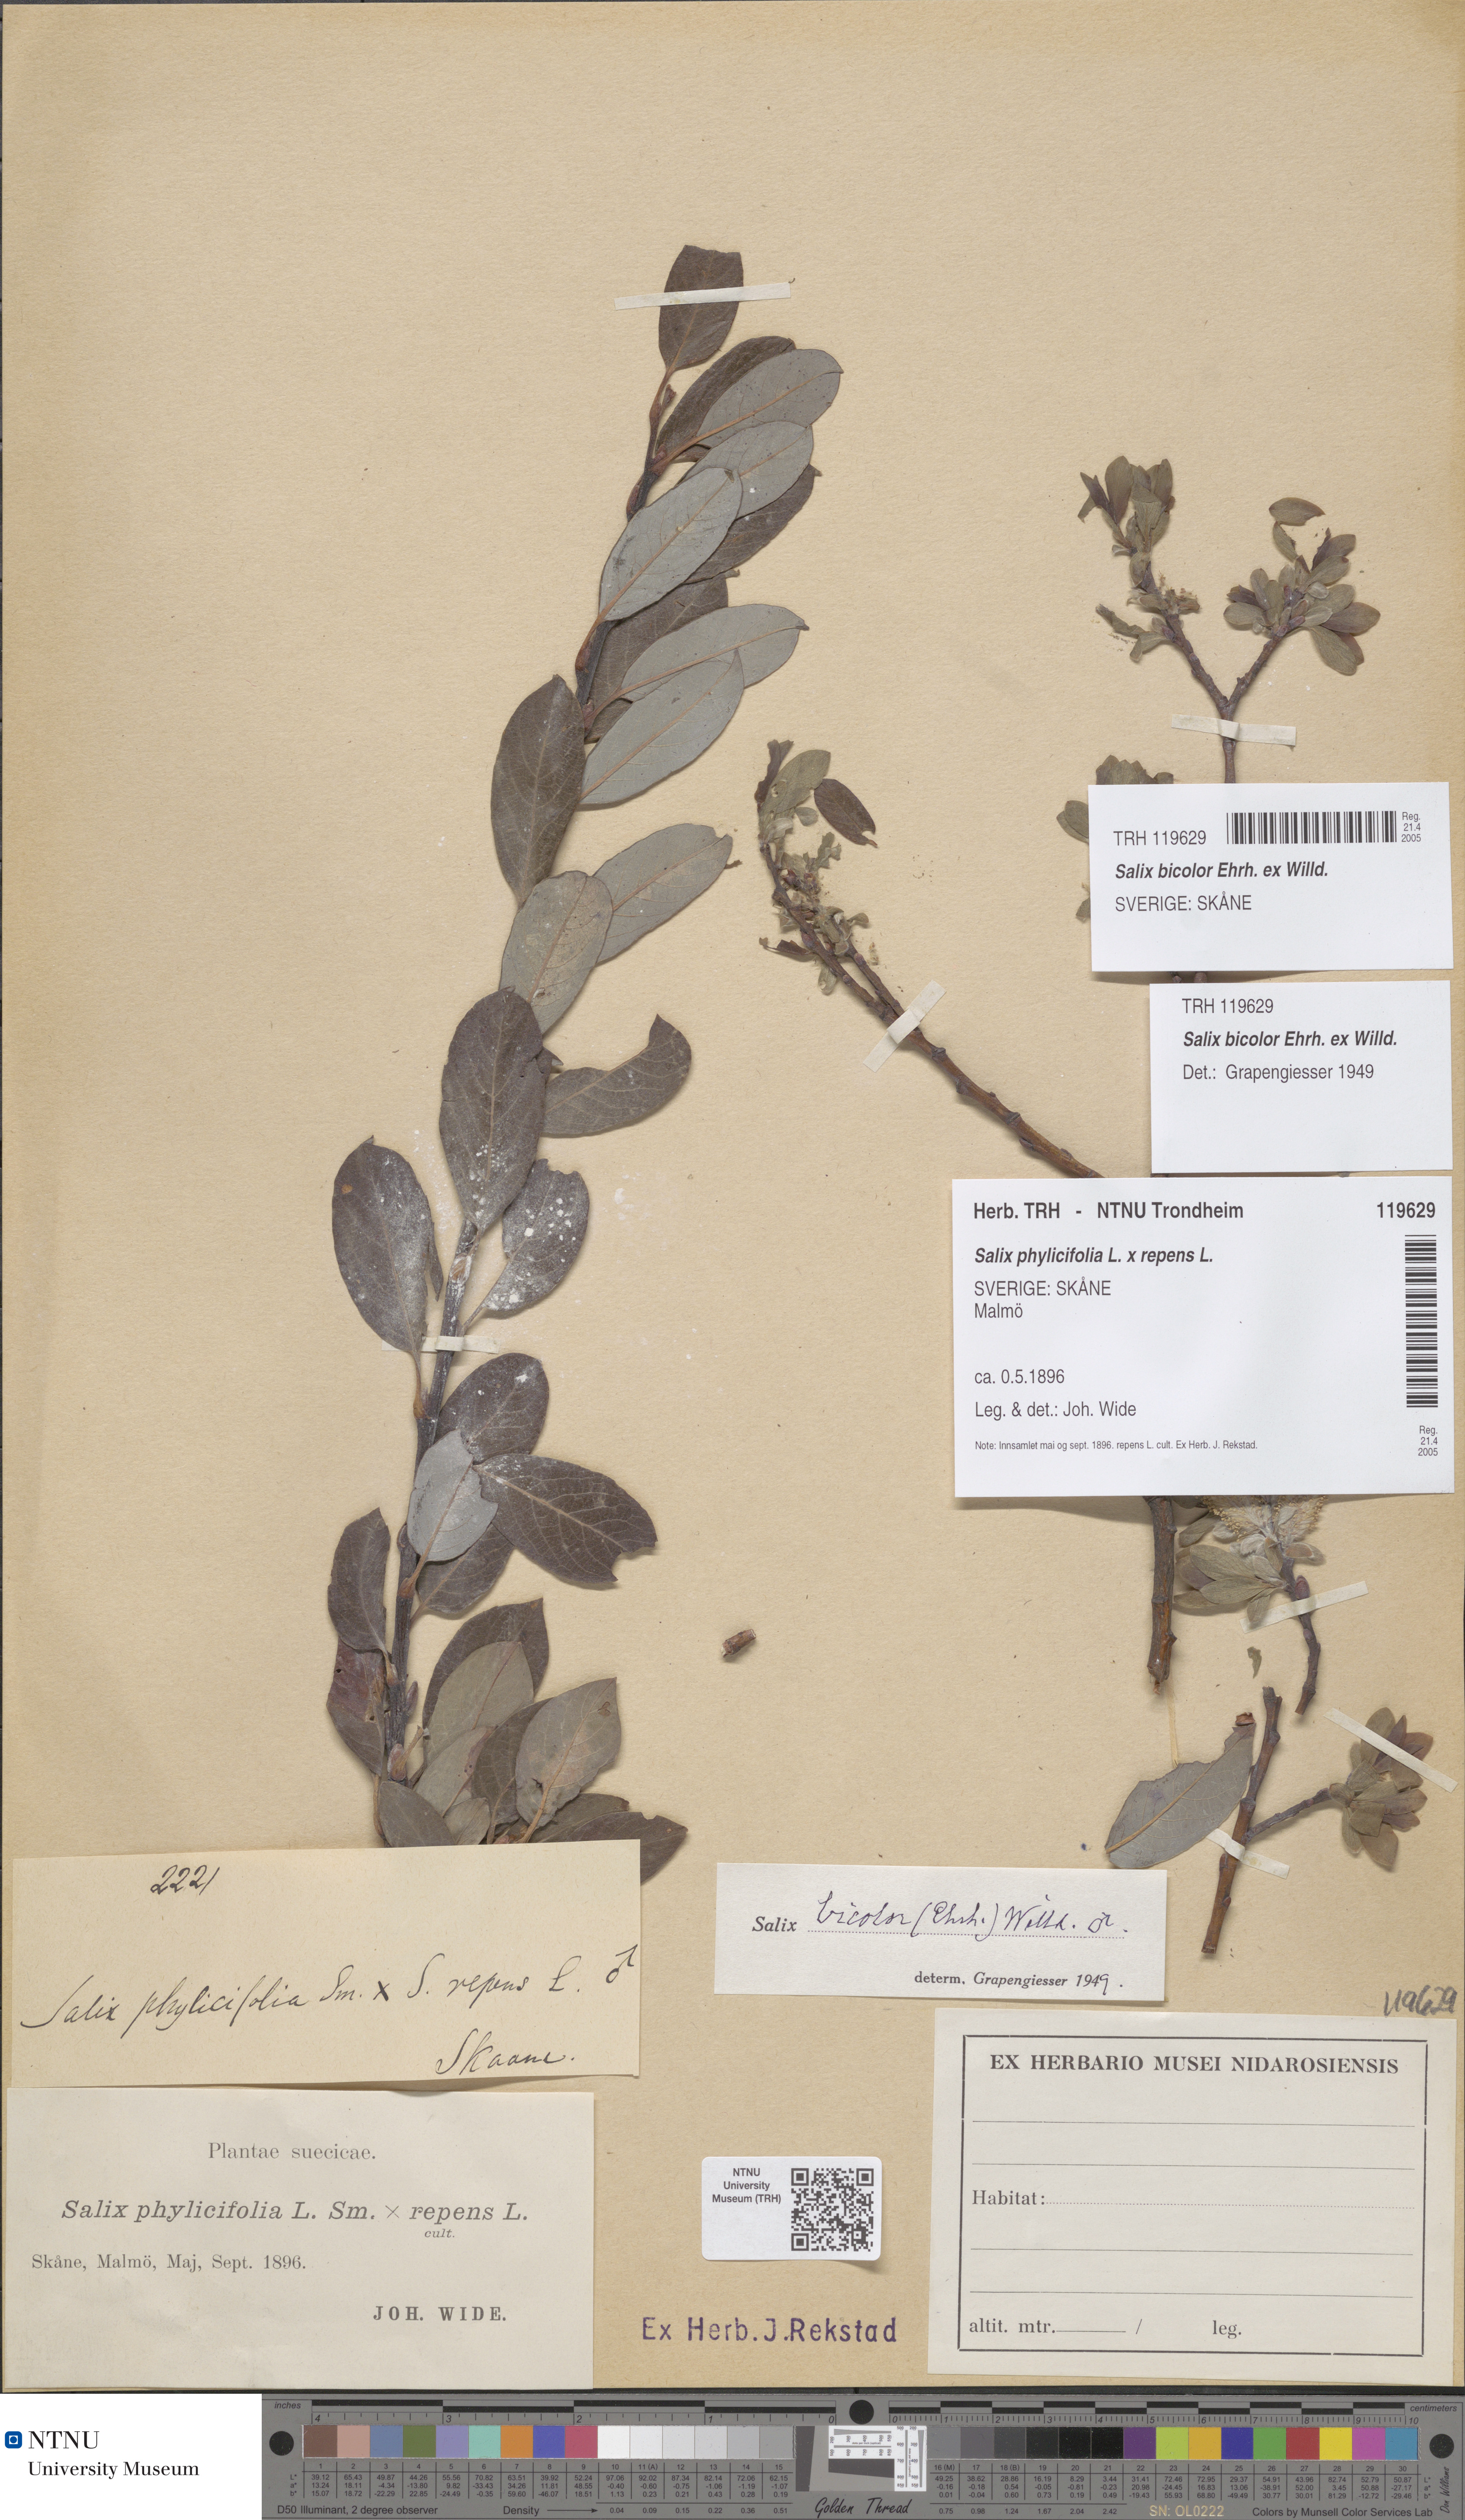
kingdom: Plantae
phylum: Tracheophyta
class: Magnoliopsida
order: Malpighiales
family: Salicaceae
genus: Salix
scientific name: Salix bicolor
